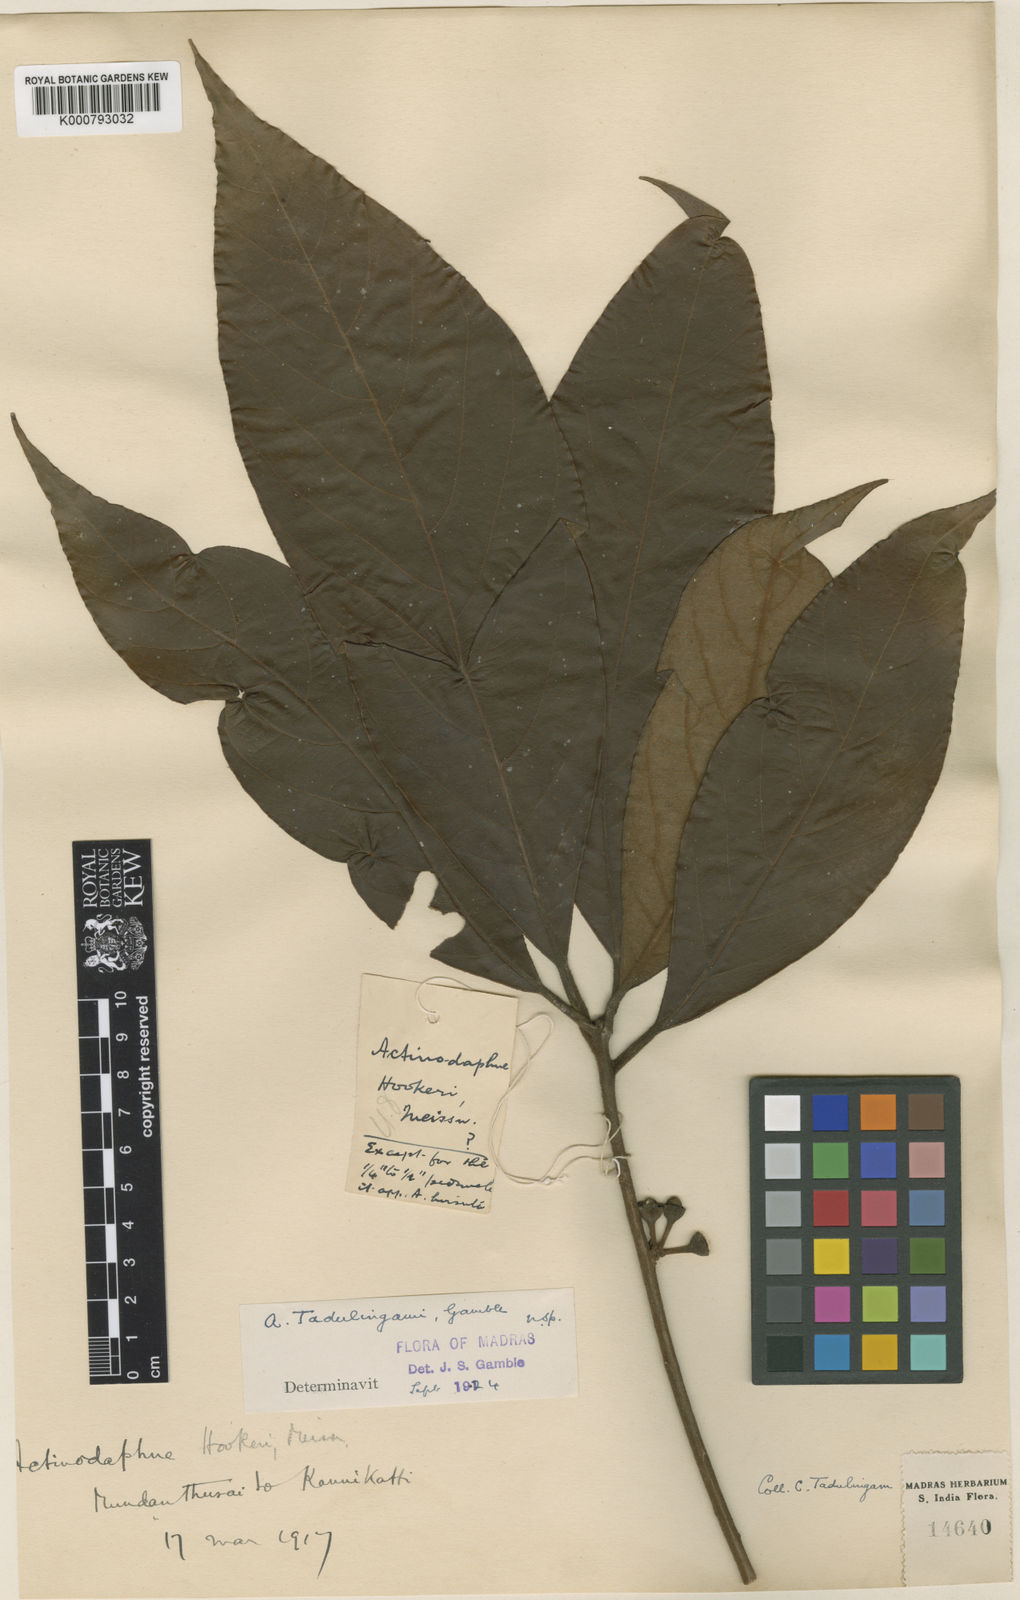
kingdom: Plantae
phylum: Tracheophyta
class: Magnoliopsida
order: Laurales
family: Lauraceae
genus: Actinodaphne
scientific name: Actinodaphne tadulingamii
